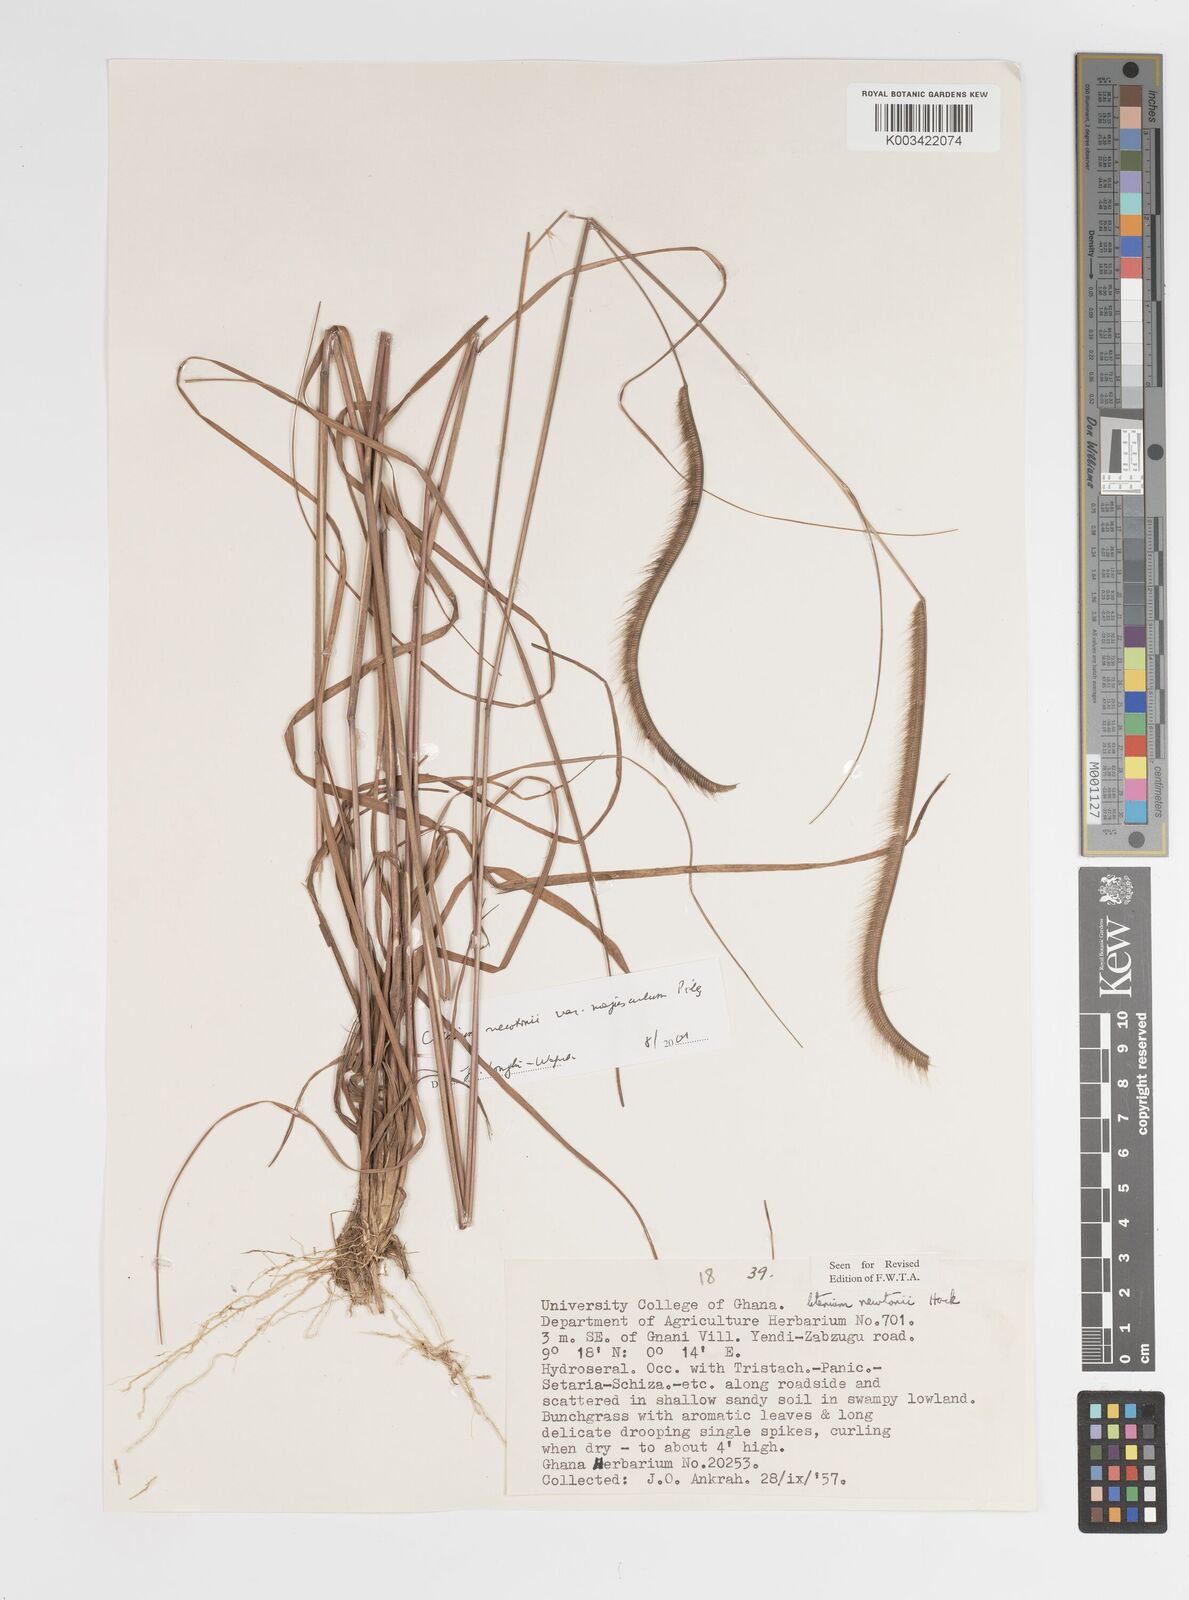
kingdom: Plantae
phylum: Tracheophyta
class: Liliopsida
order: Poales
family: Poaceae
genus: Ctenium
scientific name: Ctenium newtonii
